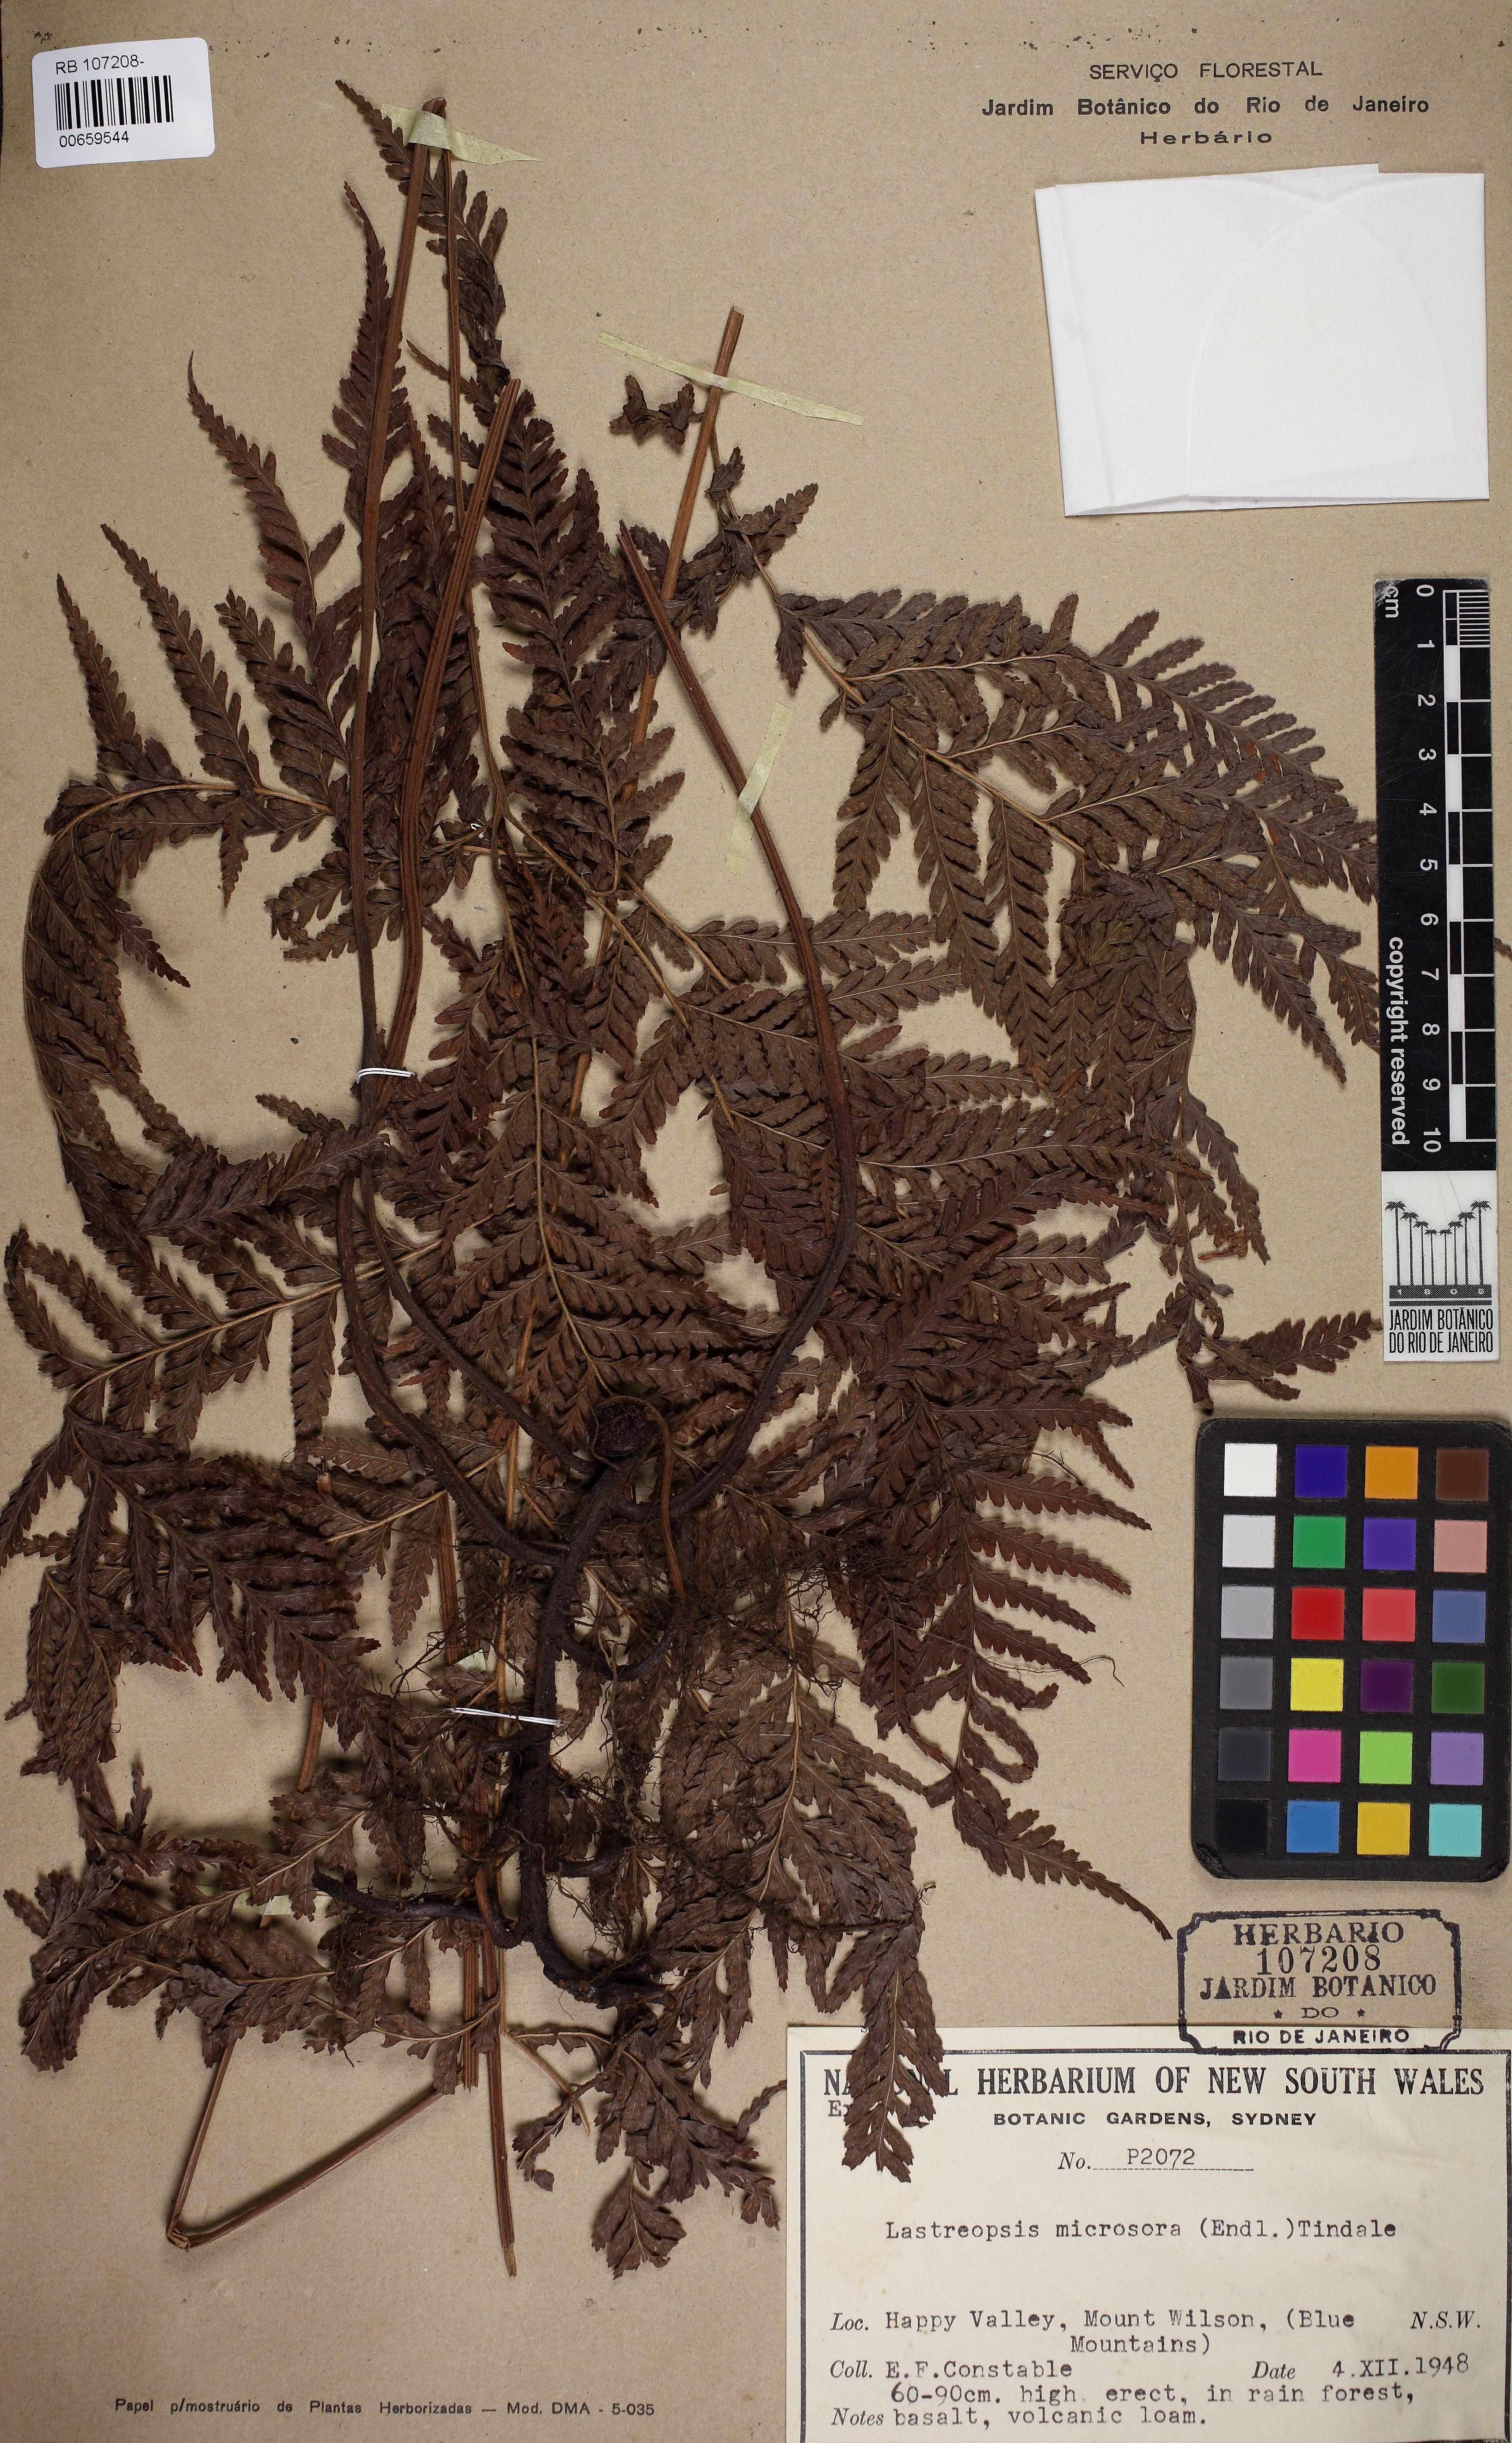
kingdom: Plantae
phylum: Tracheophyta
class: Polypodiopsida
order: Polypodiales
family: Dryopteridaceae
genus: Parapolystichum
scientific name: Parapolystichum microsorum
